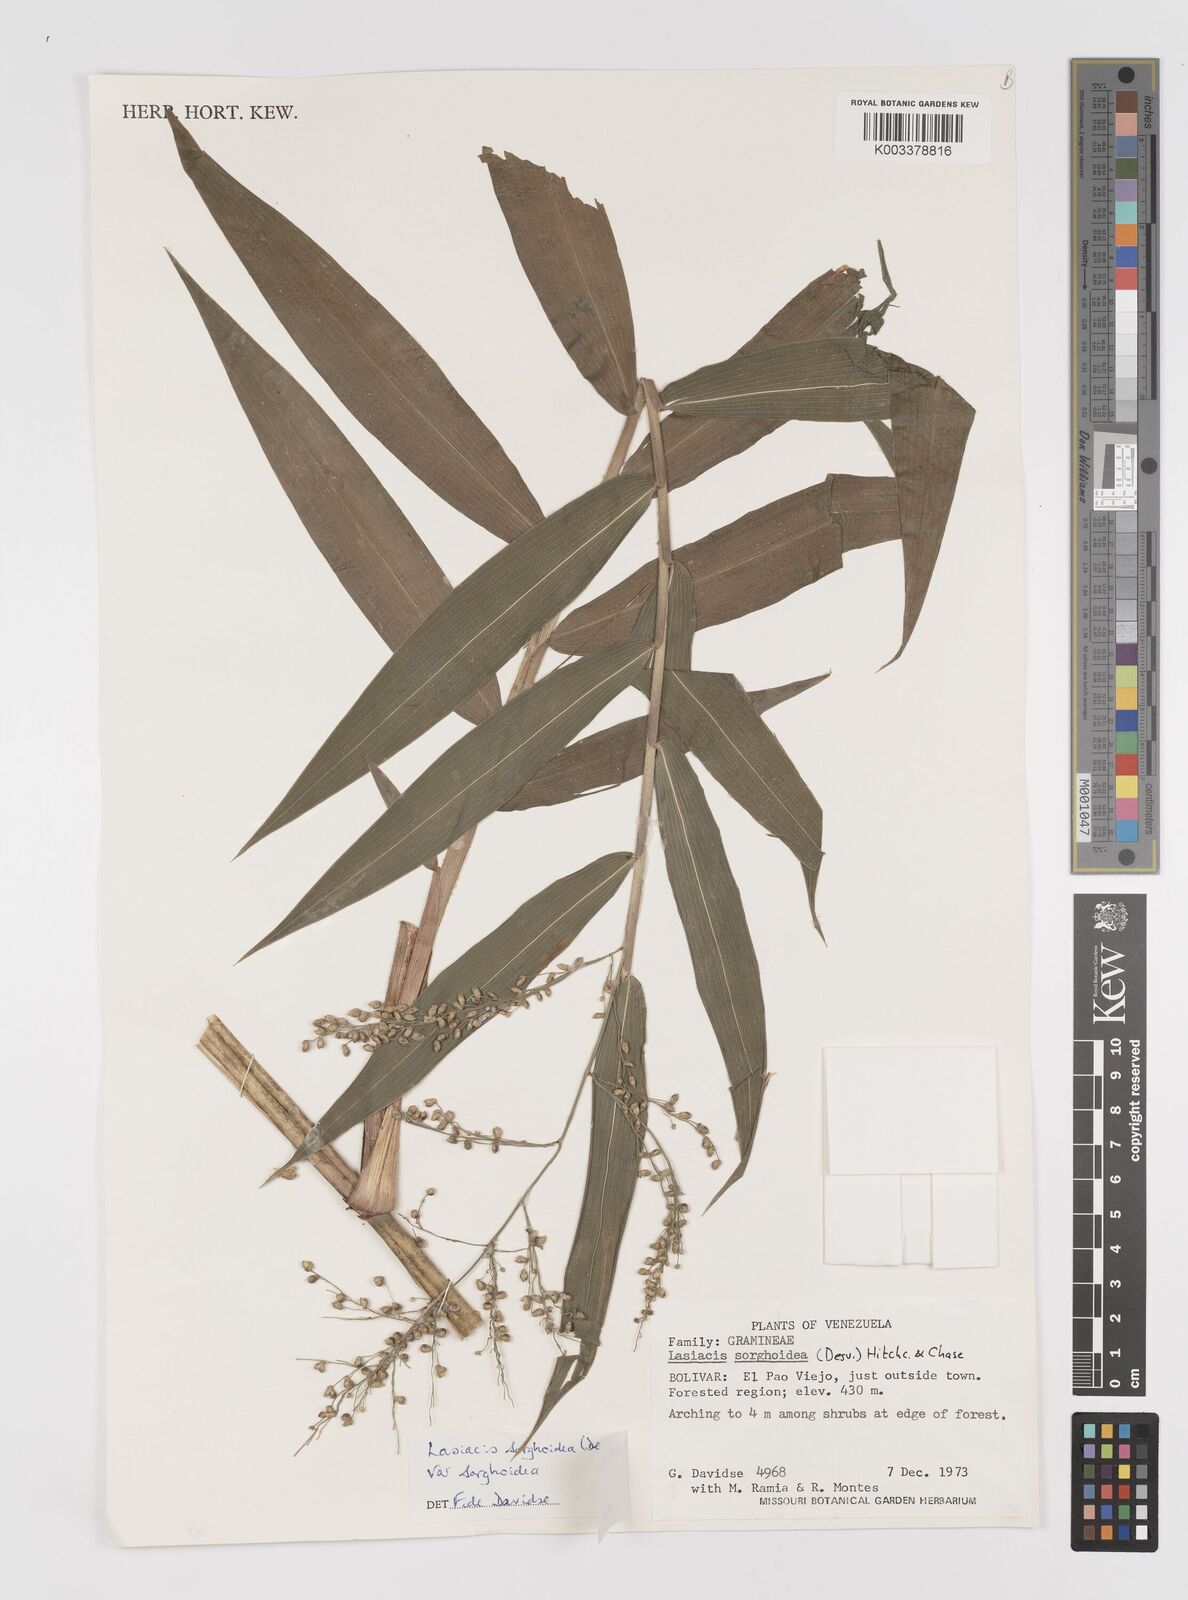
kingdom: Plantae
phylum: Tracheophyta
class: Liliopsida
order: Poales
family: Poaceae
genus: Lasiacis
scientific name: Lasiacis maculata
